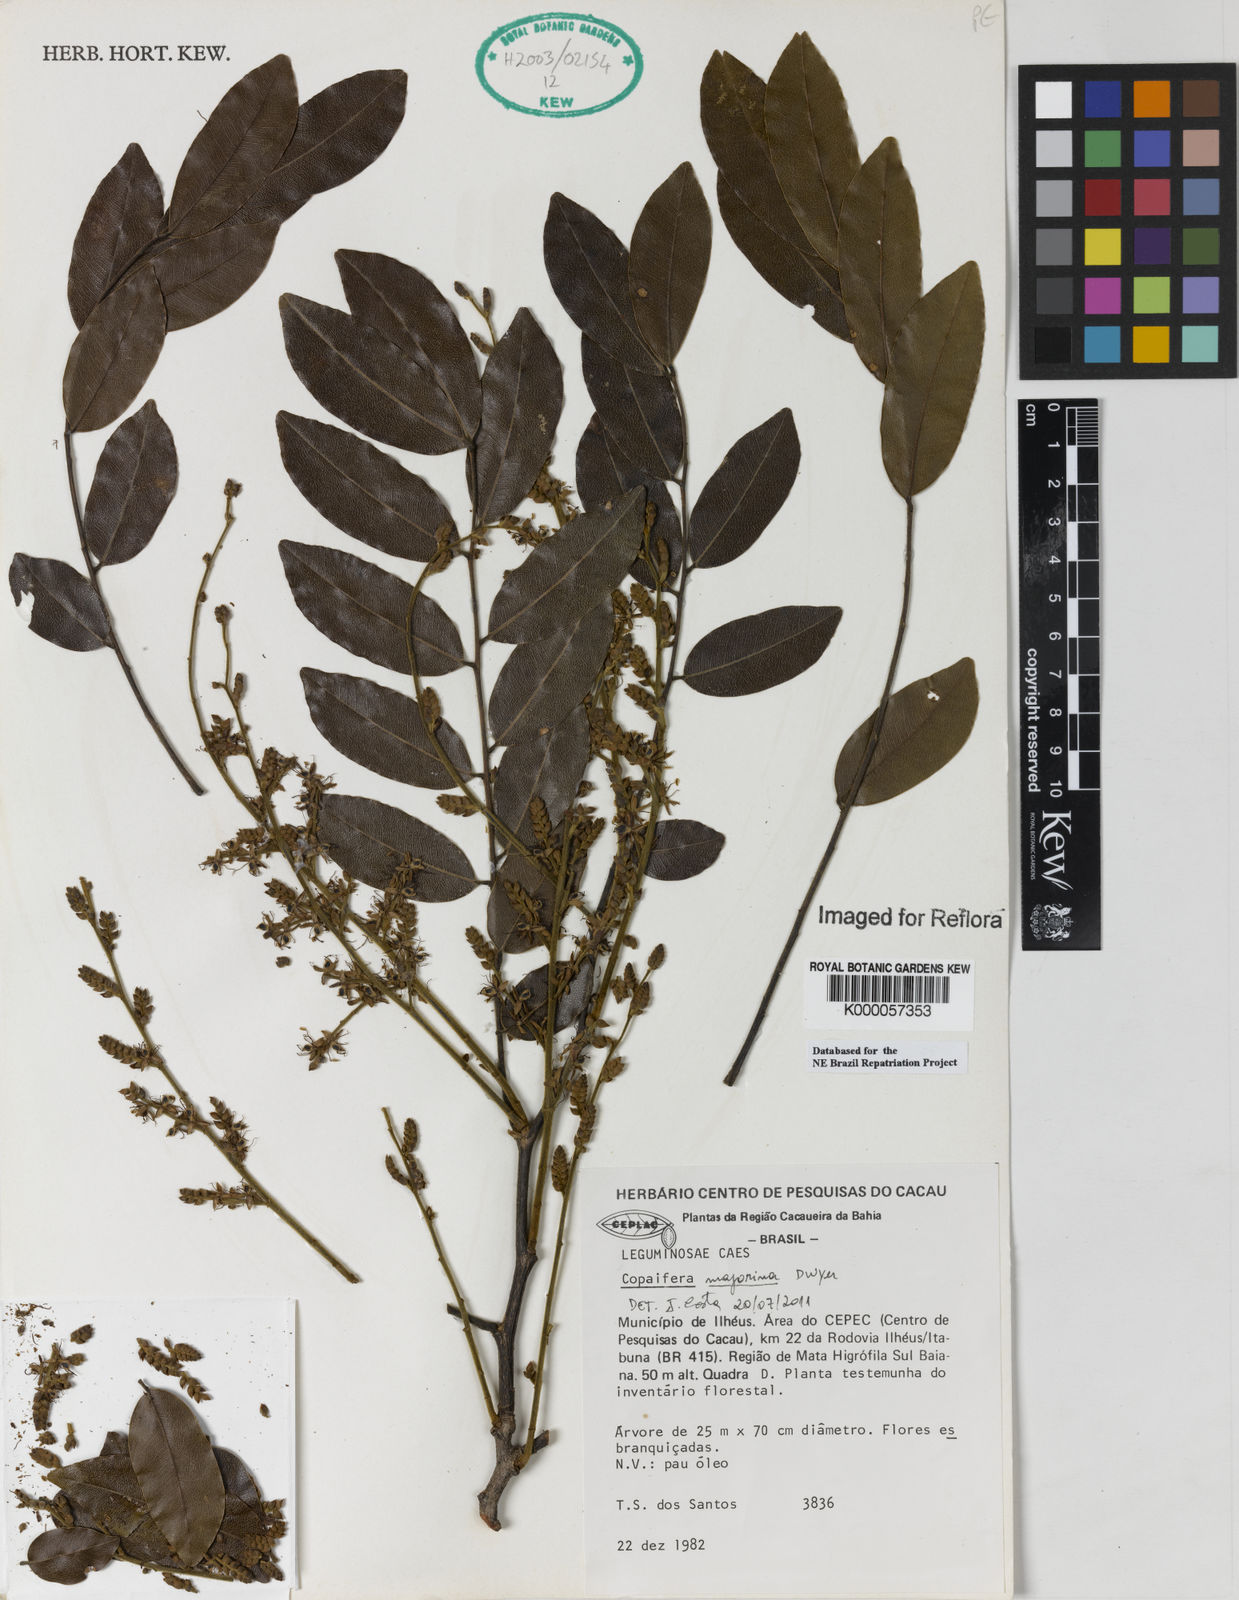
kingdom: Plantae
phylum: Tracheophyta
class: Magnoliopsida
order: Fabales
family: Fabaceae
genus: Copaifera
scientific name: Copaifera majorina
